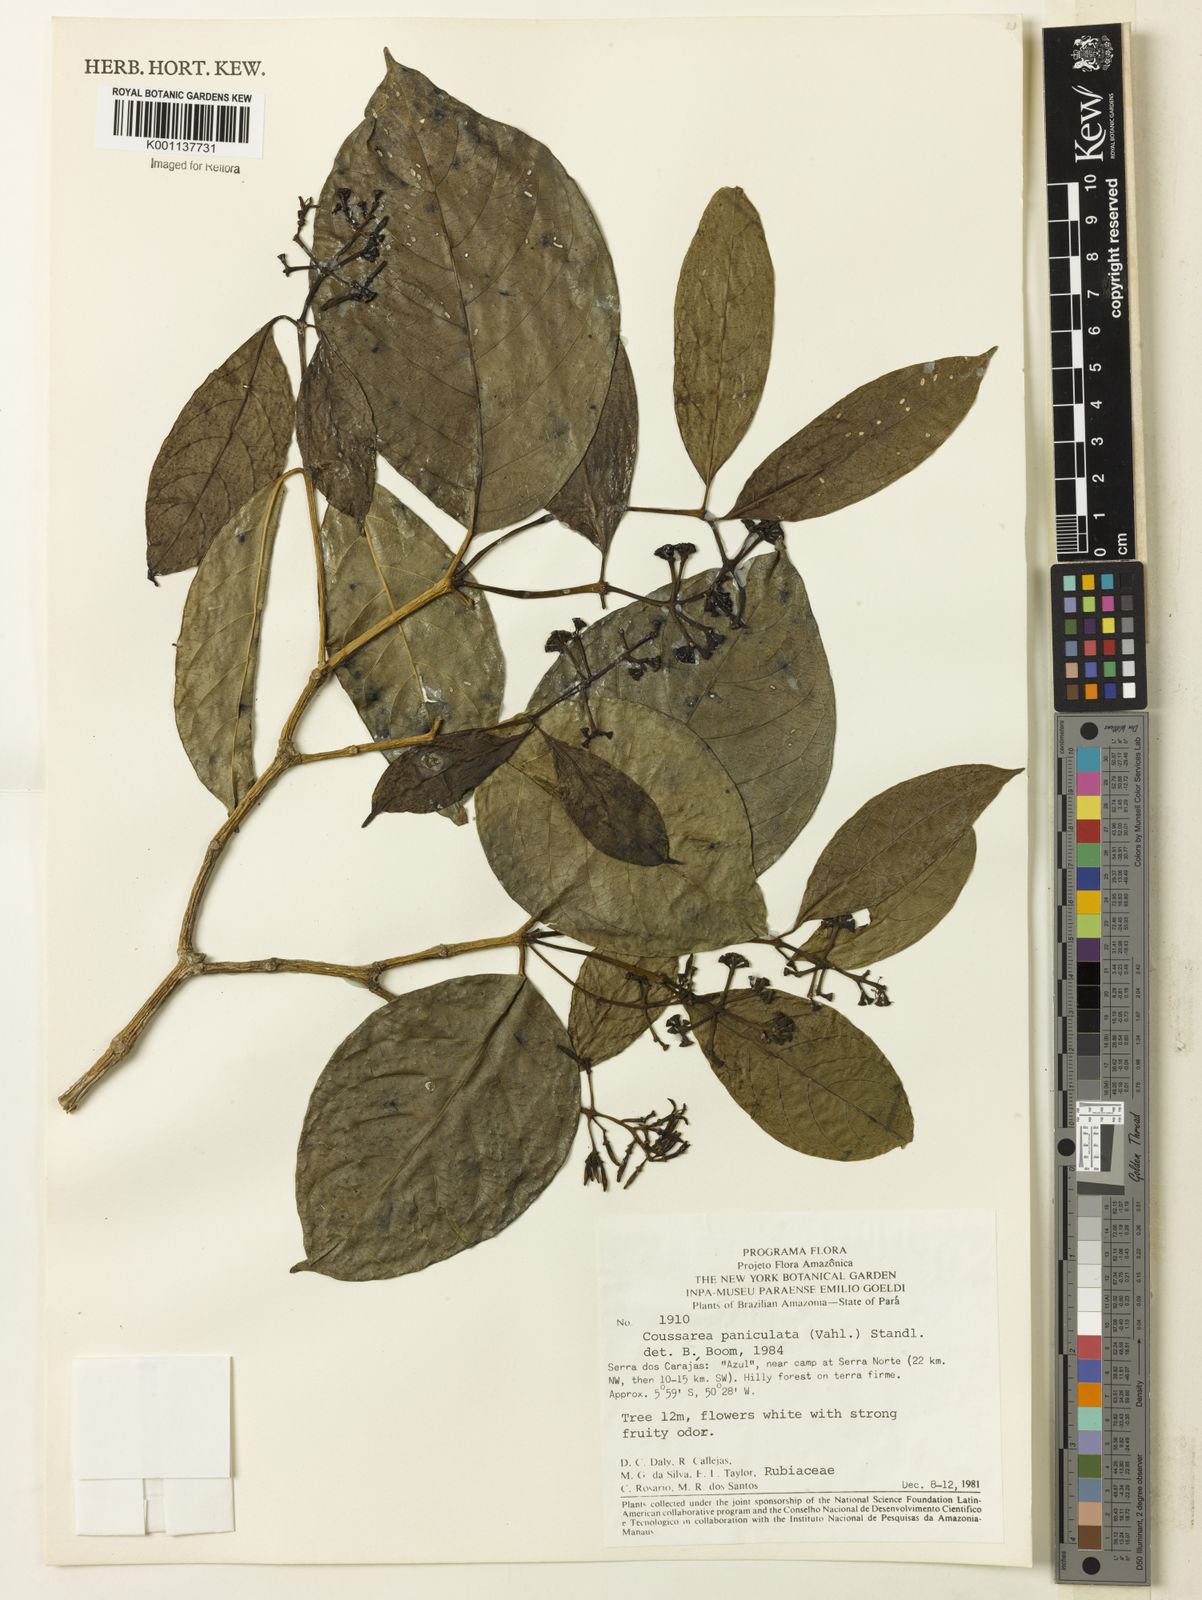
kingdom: Plantae
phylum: Tracheophyta
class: Magnoliopsida
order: Gentianales
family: Rubiaceae
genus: Coussarea
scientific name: Coussarea paniculata
